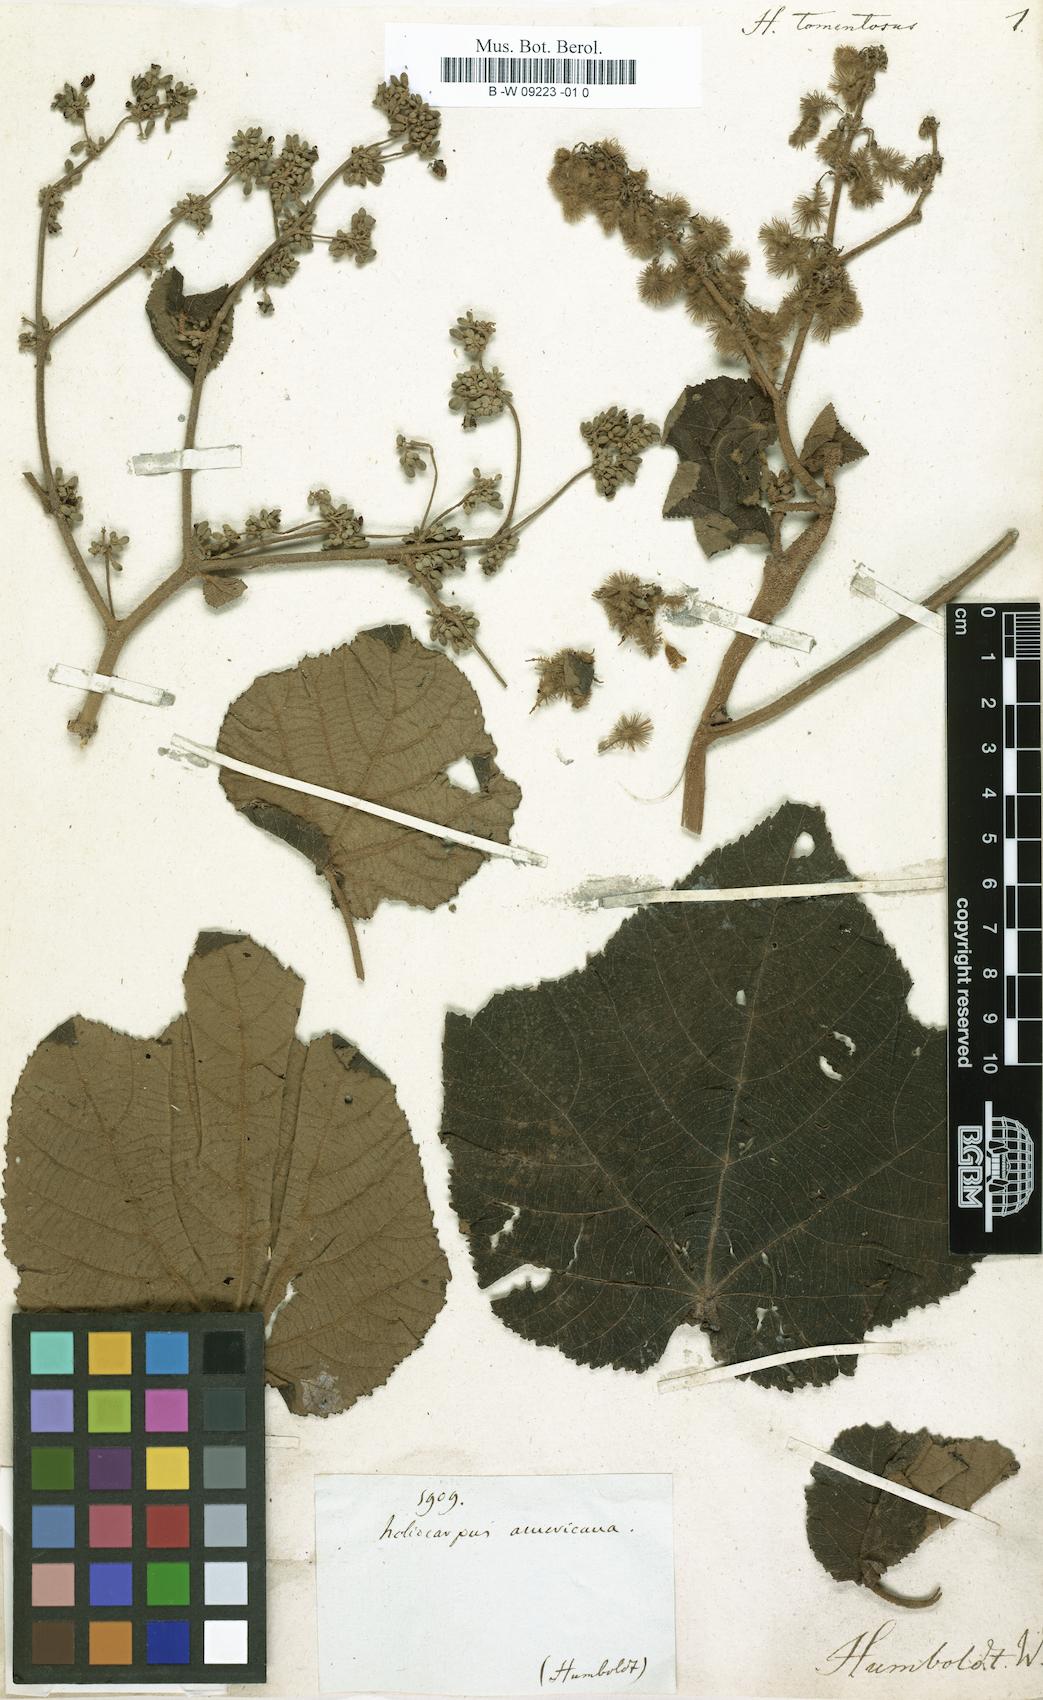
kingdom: Plantae
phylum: Tracheophyta
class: Magnoliopsida
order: Malvales
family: Malvaceae
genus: Heliocarpus
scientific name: Heliocarpus americanus
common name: White moho
